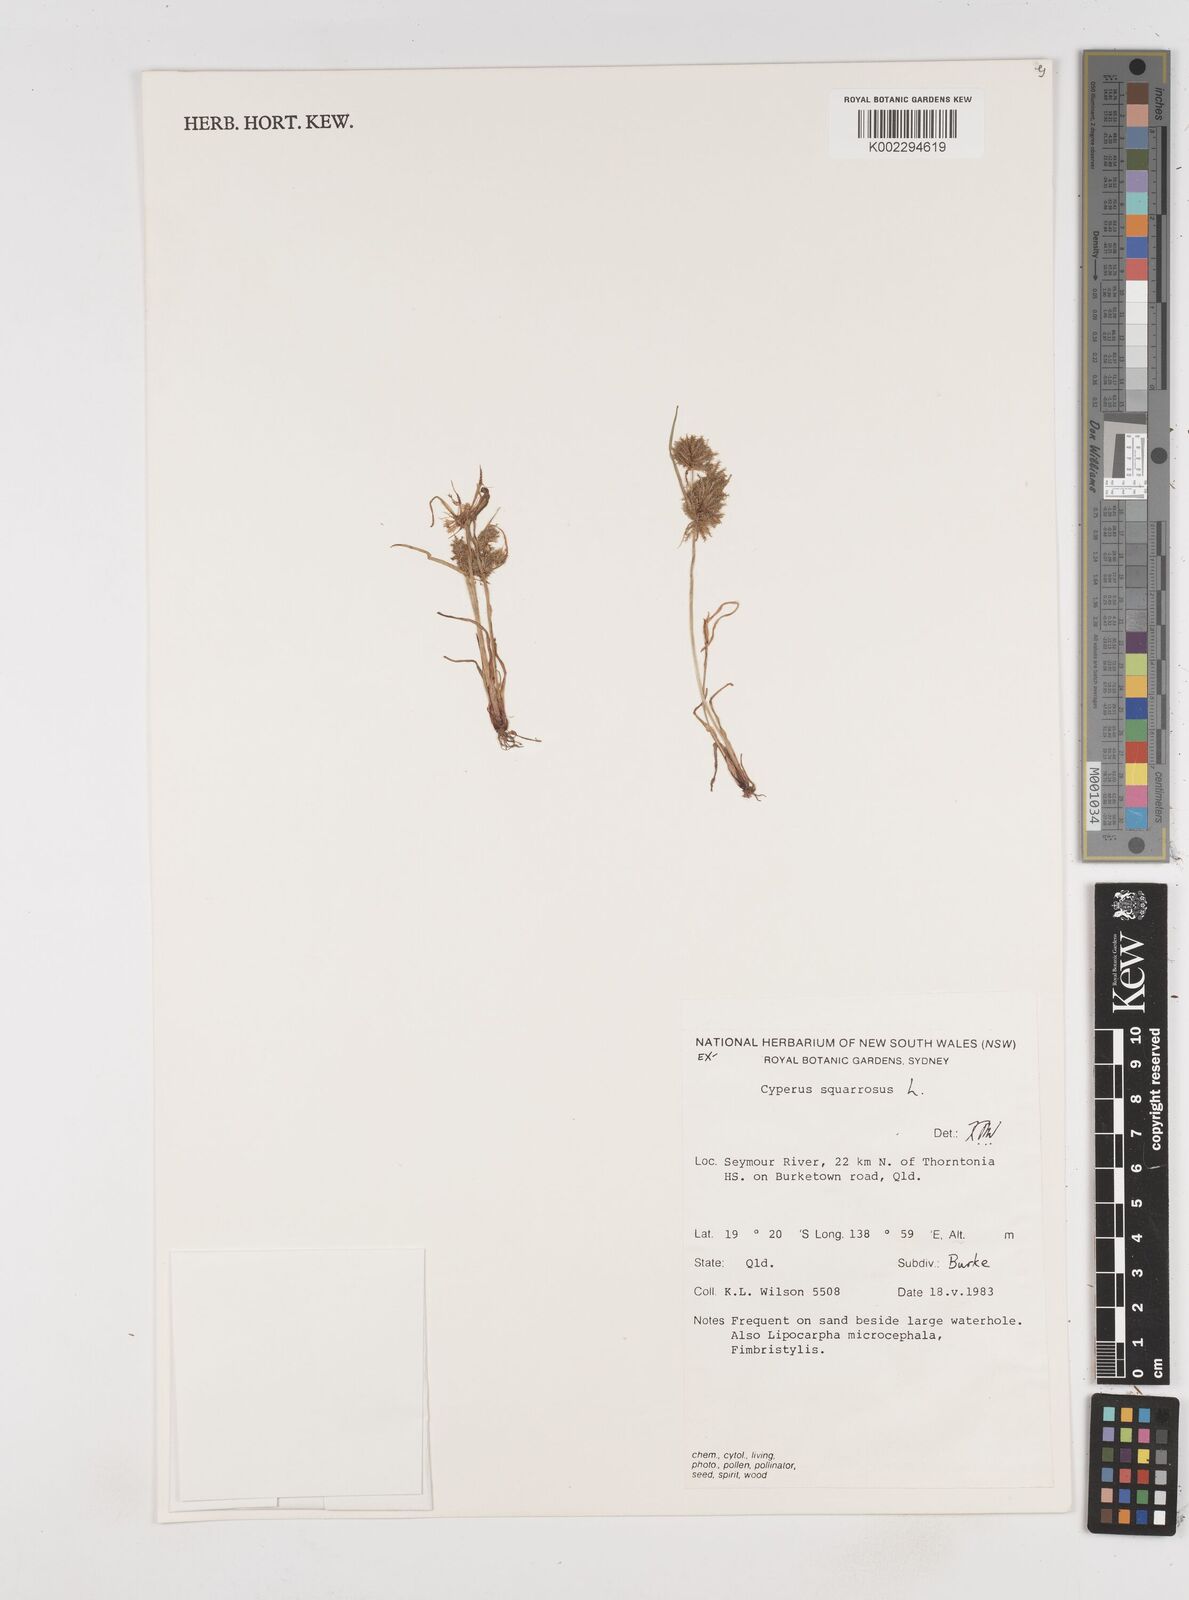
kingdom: Plantae
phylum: Tracheophyta
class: Liliopsida
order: Poales
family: Cyperaceae
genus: Cyperus
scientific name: Cyperus squarrosus
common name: Awned cyperus
